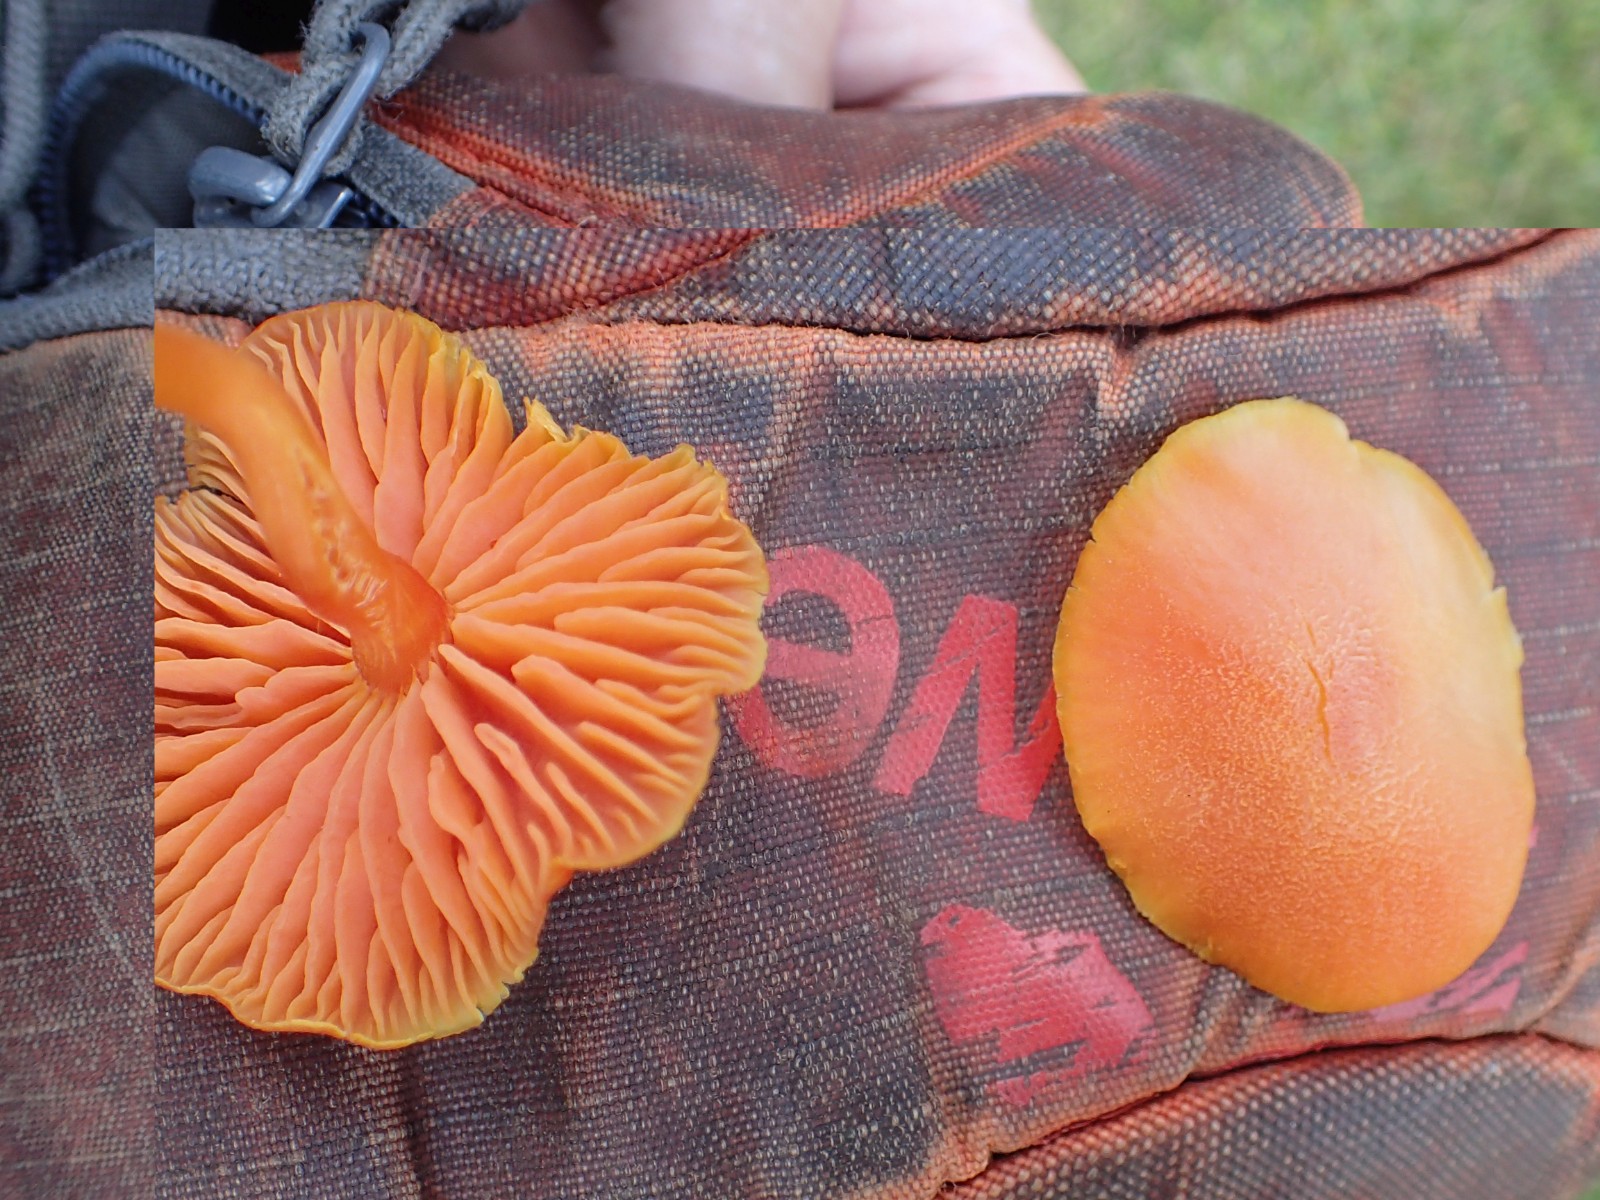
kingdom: Fungi
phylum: Basidiomycota
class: Agaricomycetes
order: Agaricales
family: Hygrophoraceae
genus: Hygrocybe
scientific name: Hygrocybe miniata
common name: mønje-vokshat
